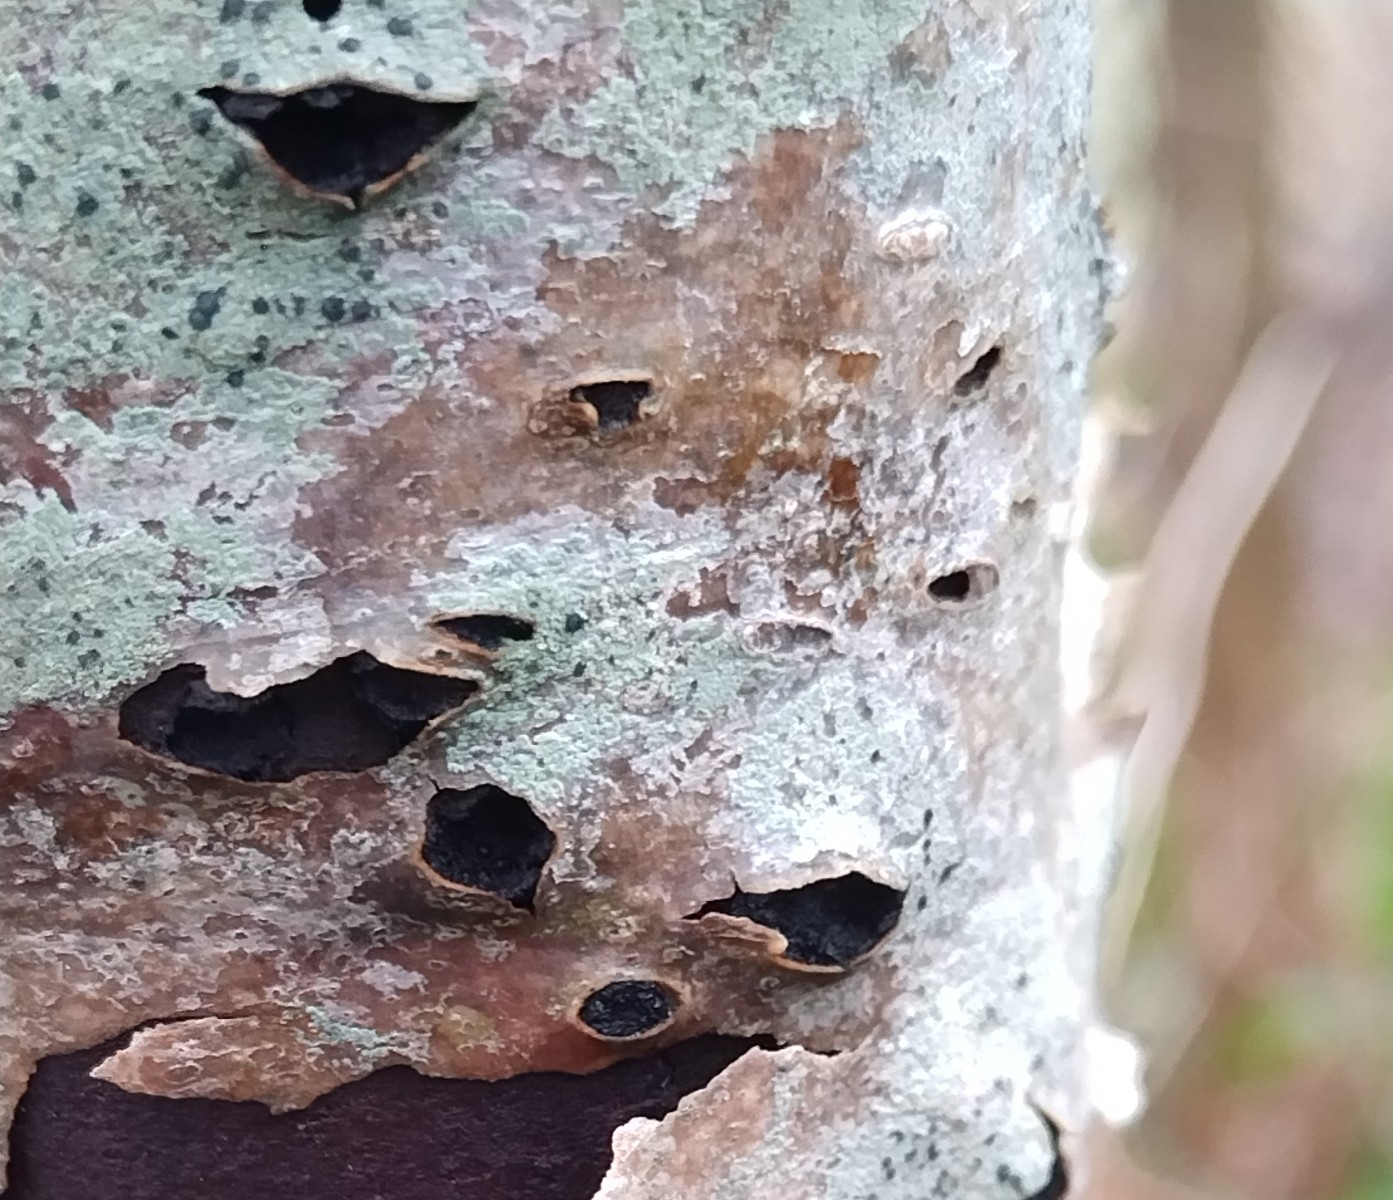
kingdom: Fungi
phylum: Ascomycota
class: Sordariomycetes
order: Xylariales
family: Hypoxylaceae
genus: Jackrogersella
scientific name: Jackrogersella multiformis
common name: foranderlig kulbær
